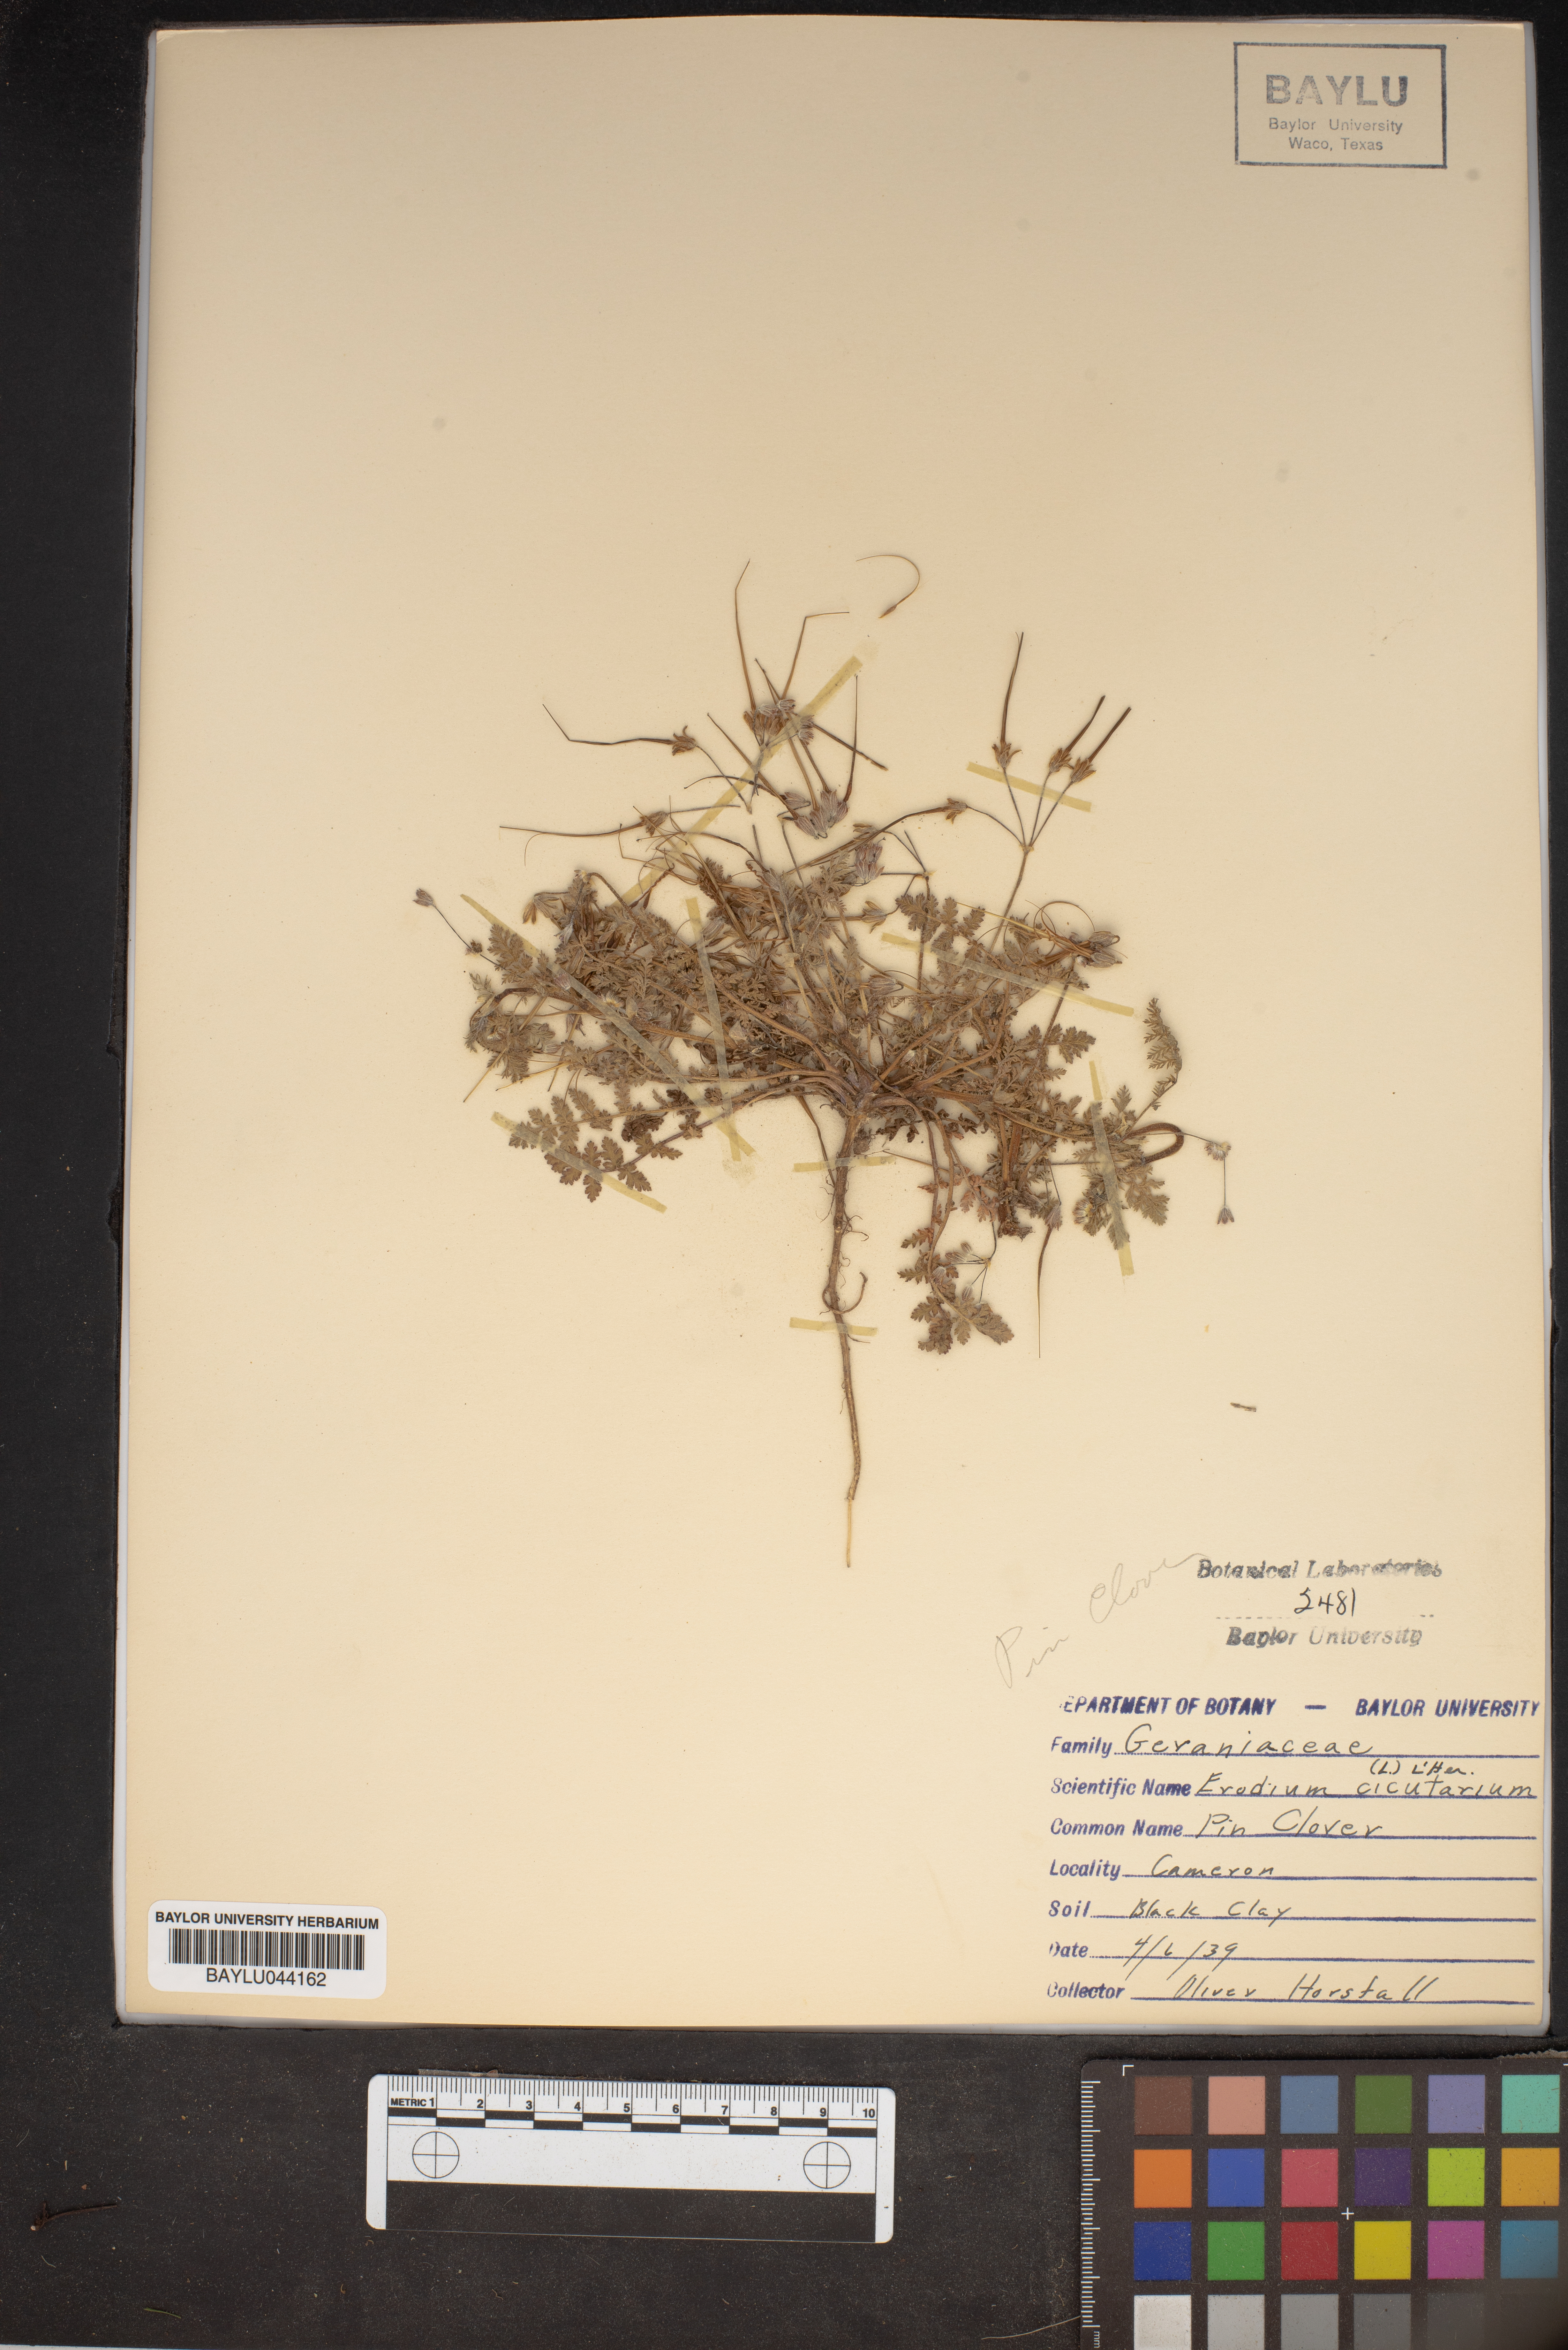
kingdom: Plantae
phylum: Tracheophyta
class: Magnoliopsida
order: Geraniales
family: Geraniaceae
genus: Erodium
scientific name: Erodium cicutarium
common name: Common stork's-bill
